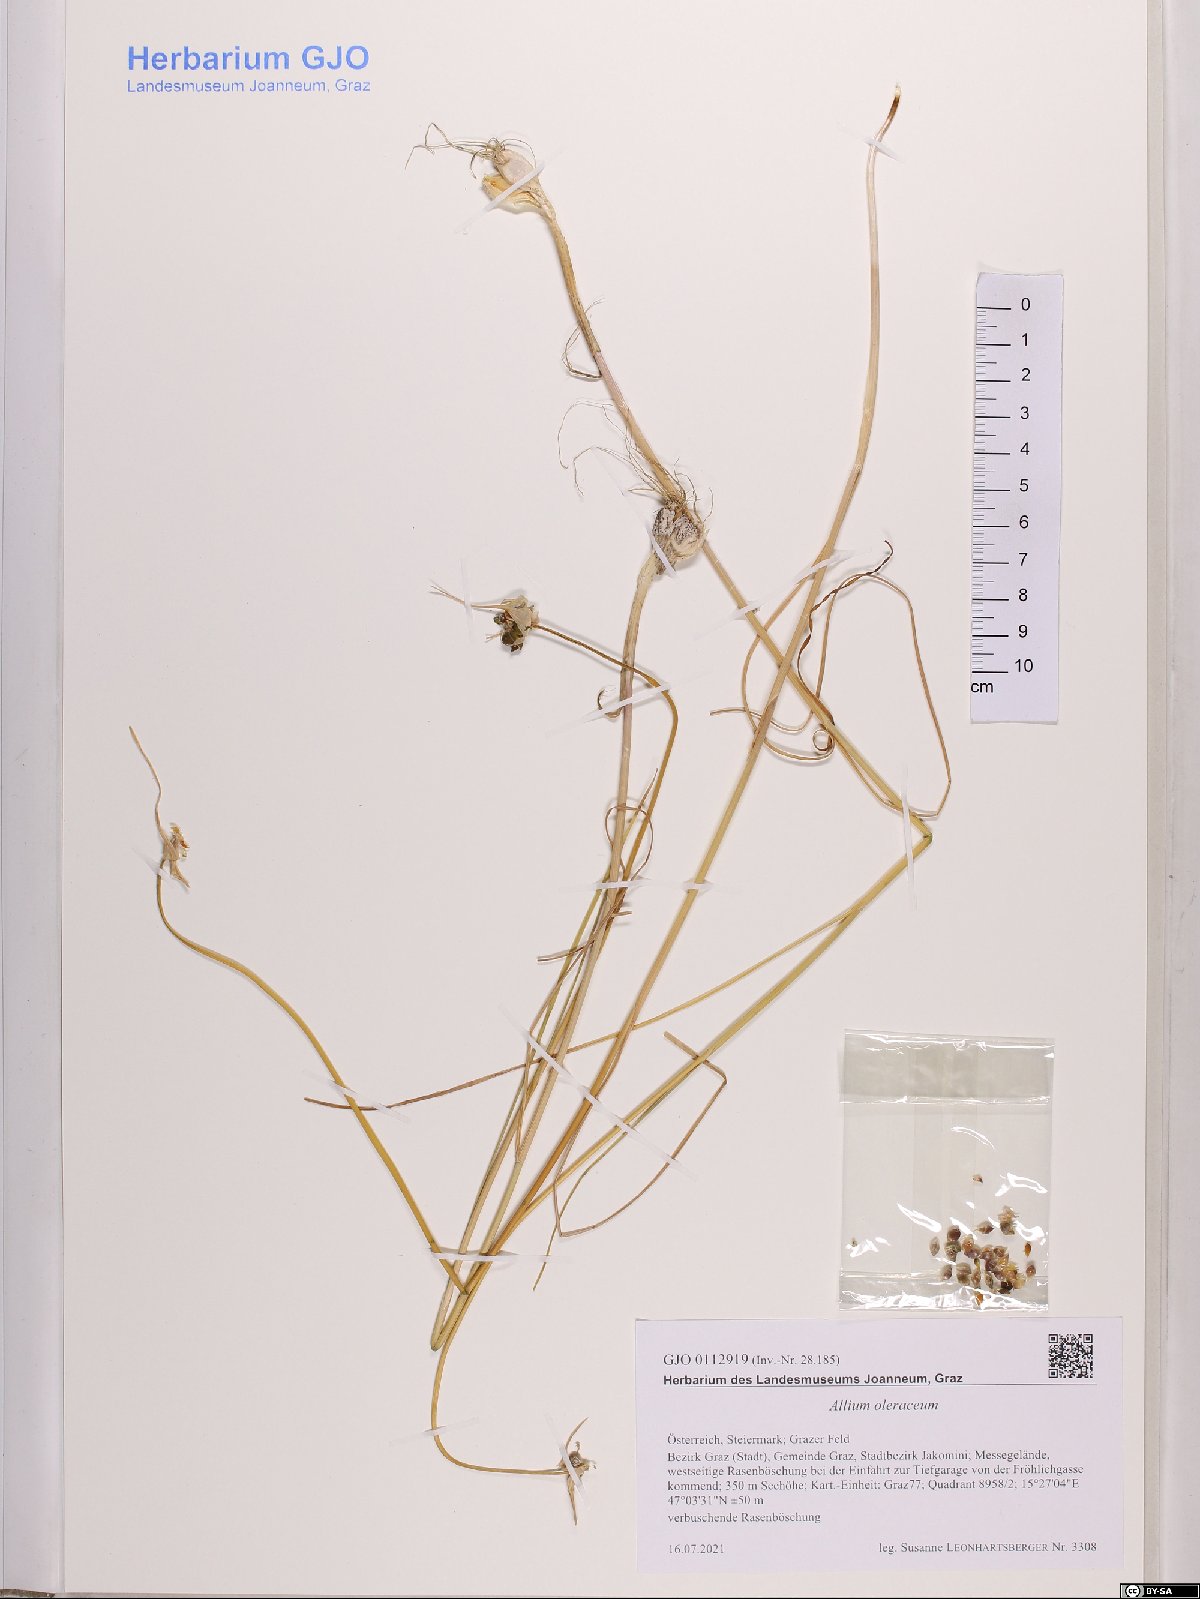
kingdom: Plantae
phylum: Tracheophyta
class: Liliopsida
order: Asparagales
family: Amaryllidaceae
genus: Allium
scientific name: Allium oleraceum
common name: Field garlic
